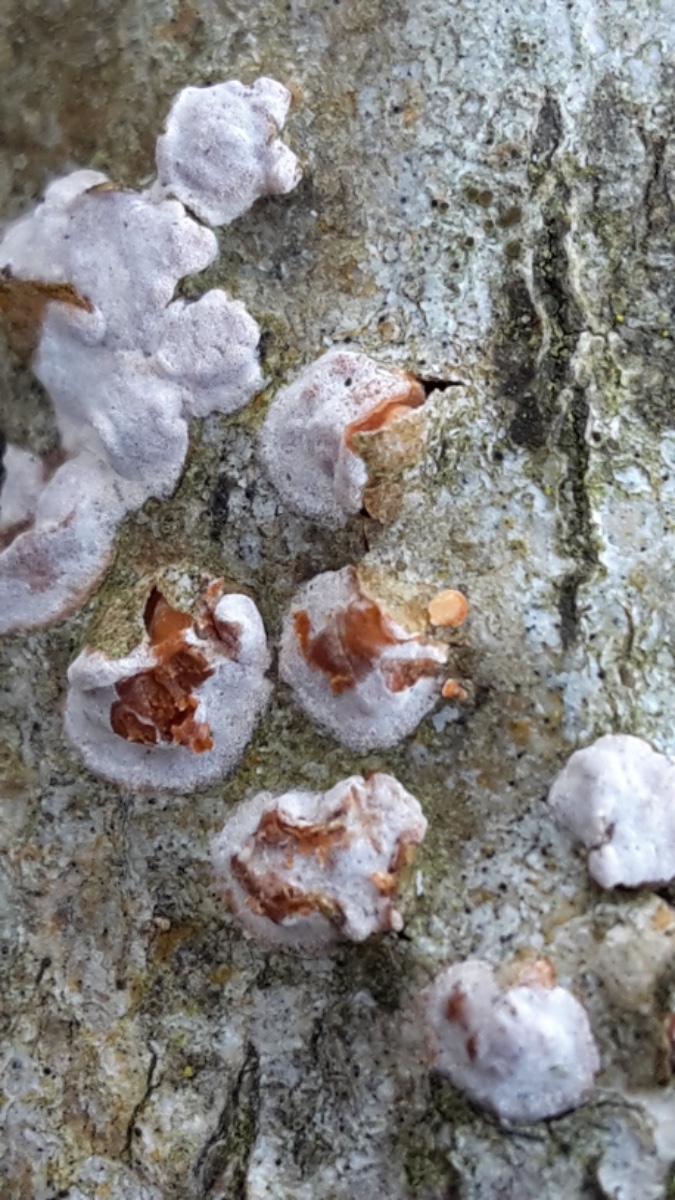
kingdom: Fungi
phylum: Basidiomycota
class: Agaricomycetes
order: Russulales
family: Peniophoraceae
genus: Peniophora
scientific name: Peniophora polygonia
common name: polygon-voksskind
